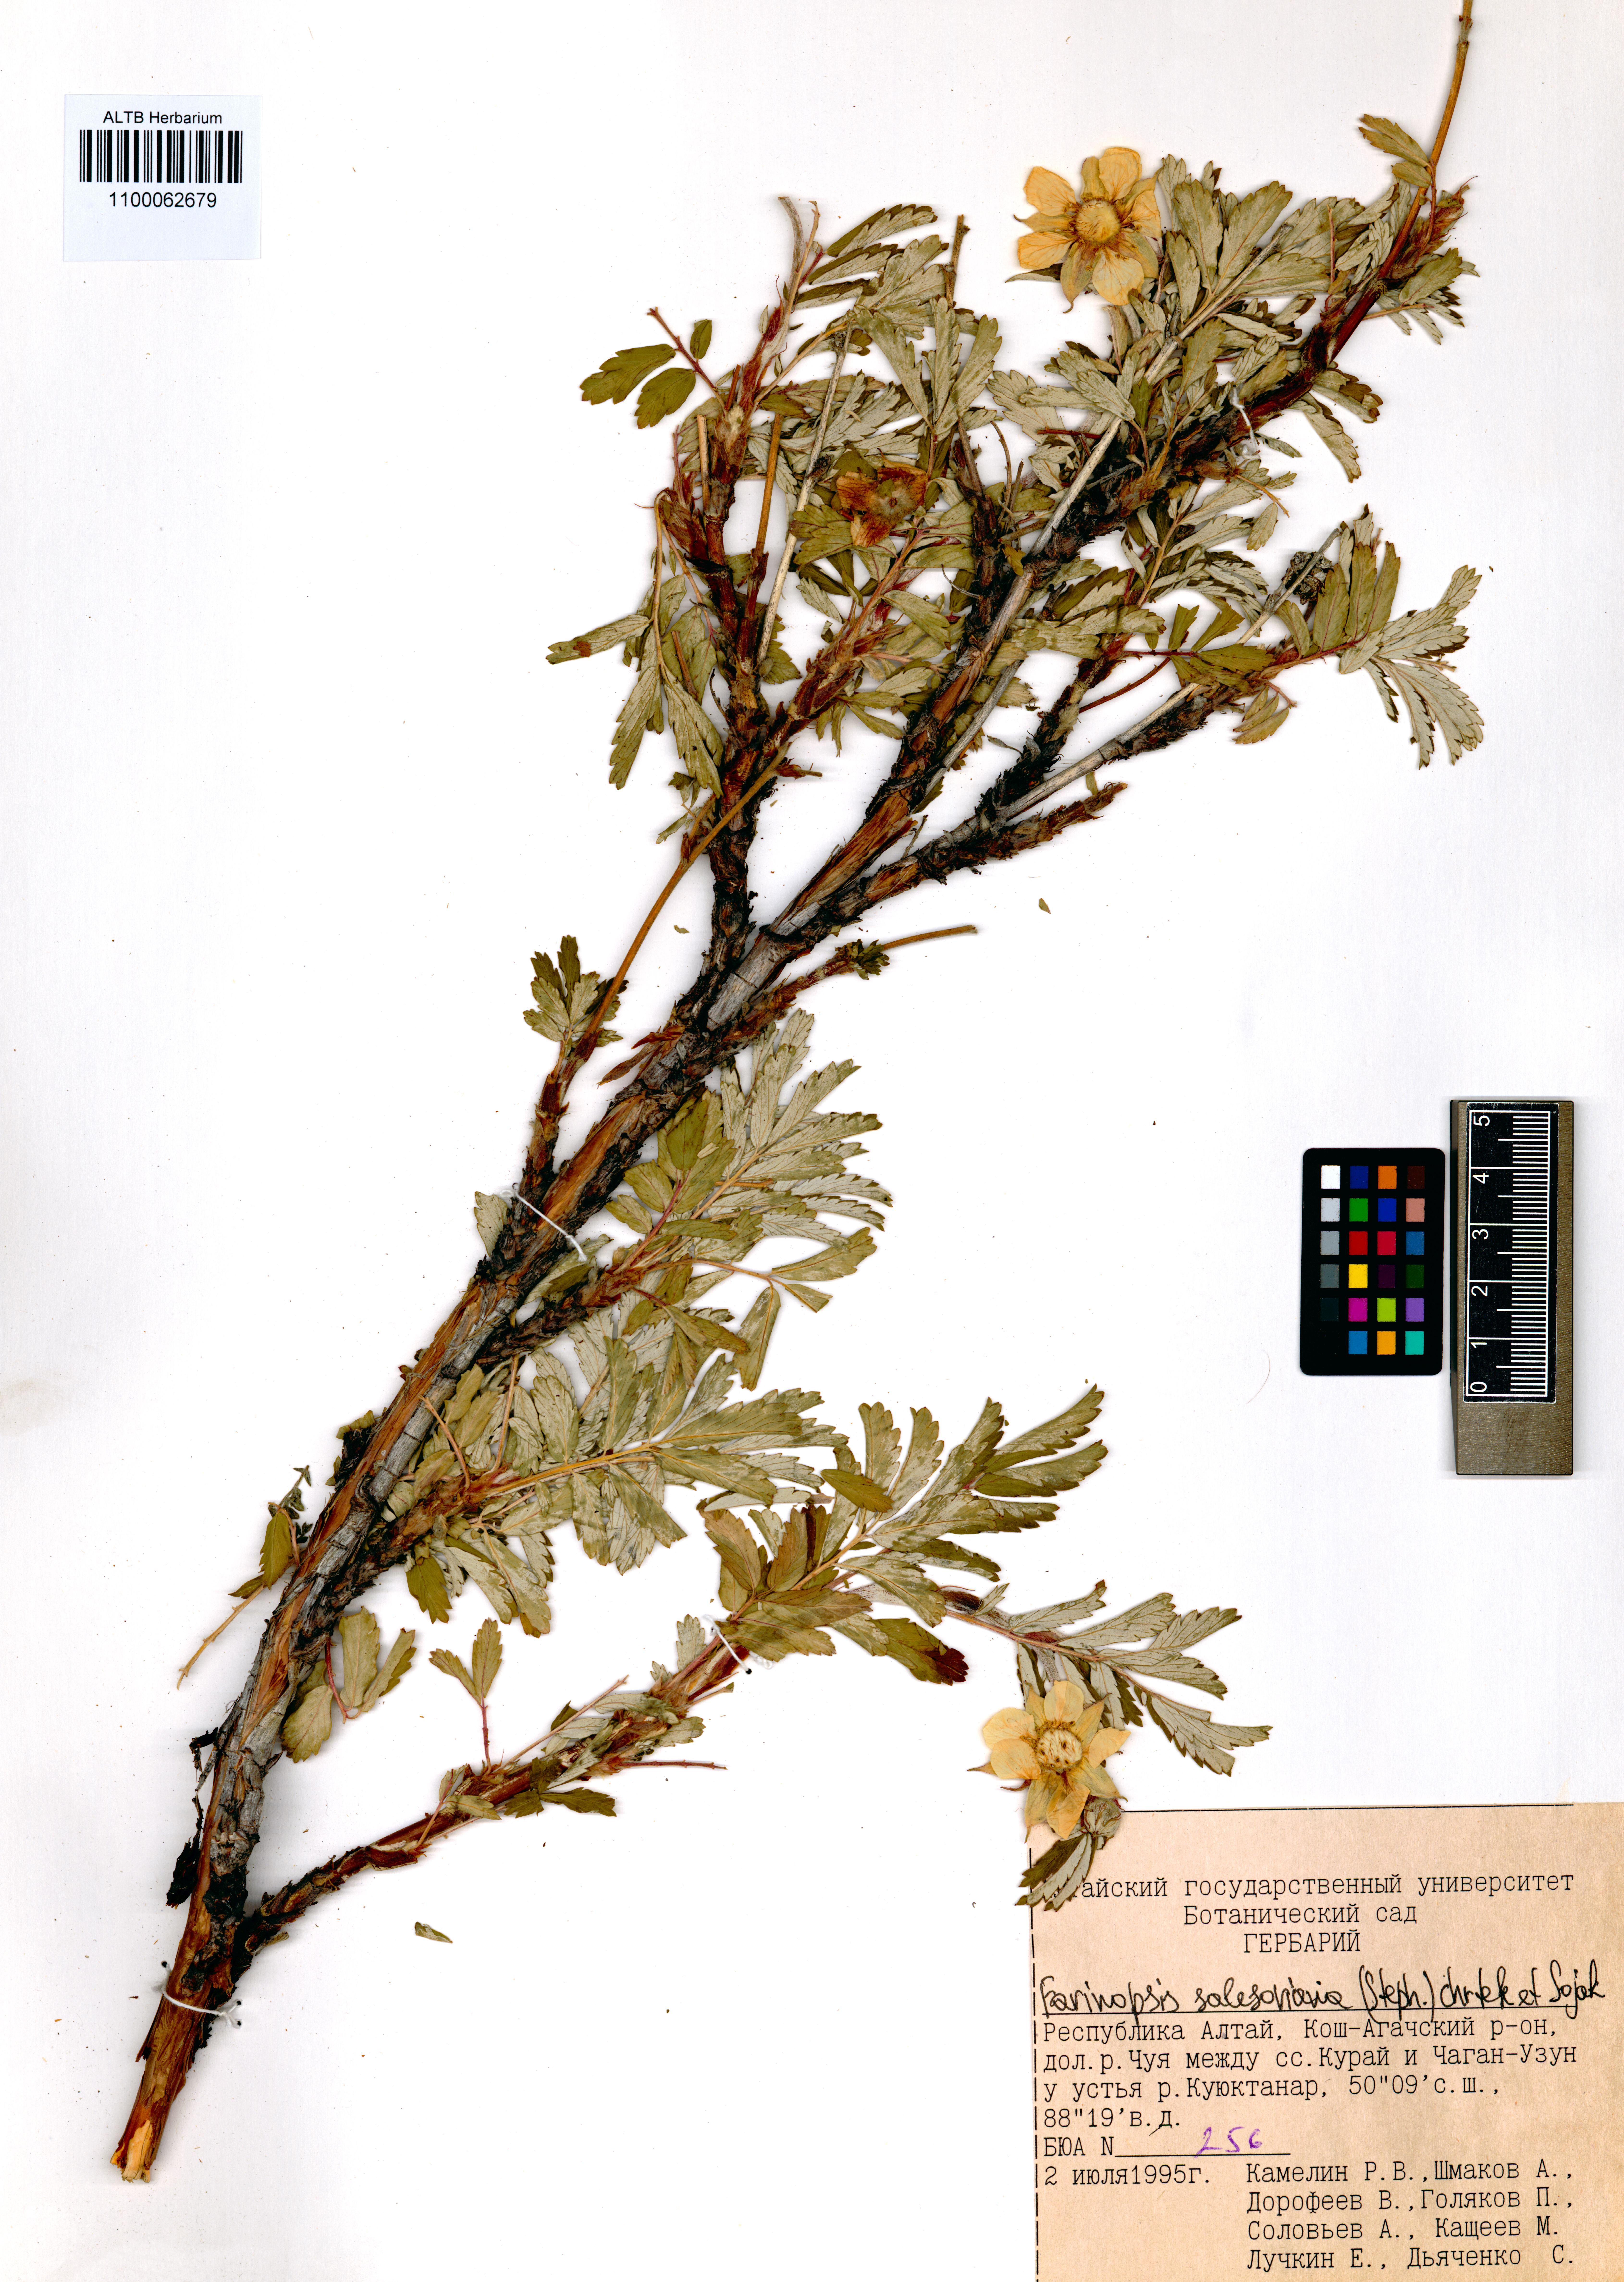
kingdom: Plantae
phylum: Tracheophyta
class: Magnoliopsida
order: Rosales
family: Rosaceae
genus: Farinopsis
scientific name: Farinopsis salesoviana
